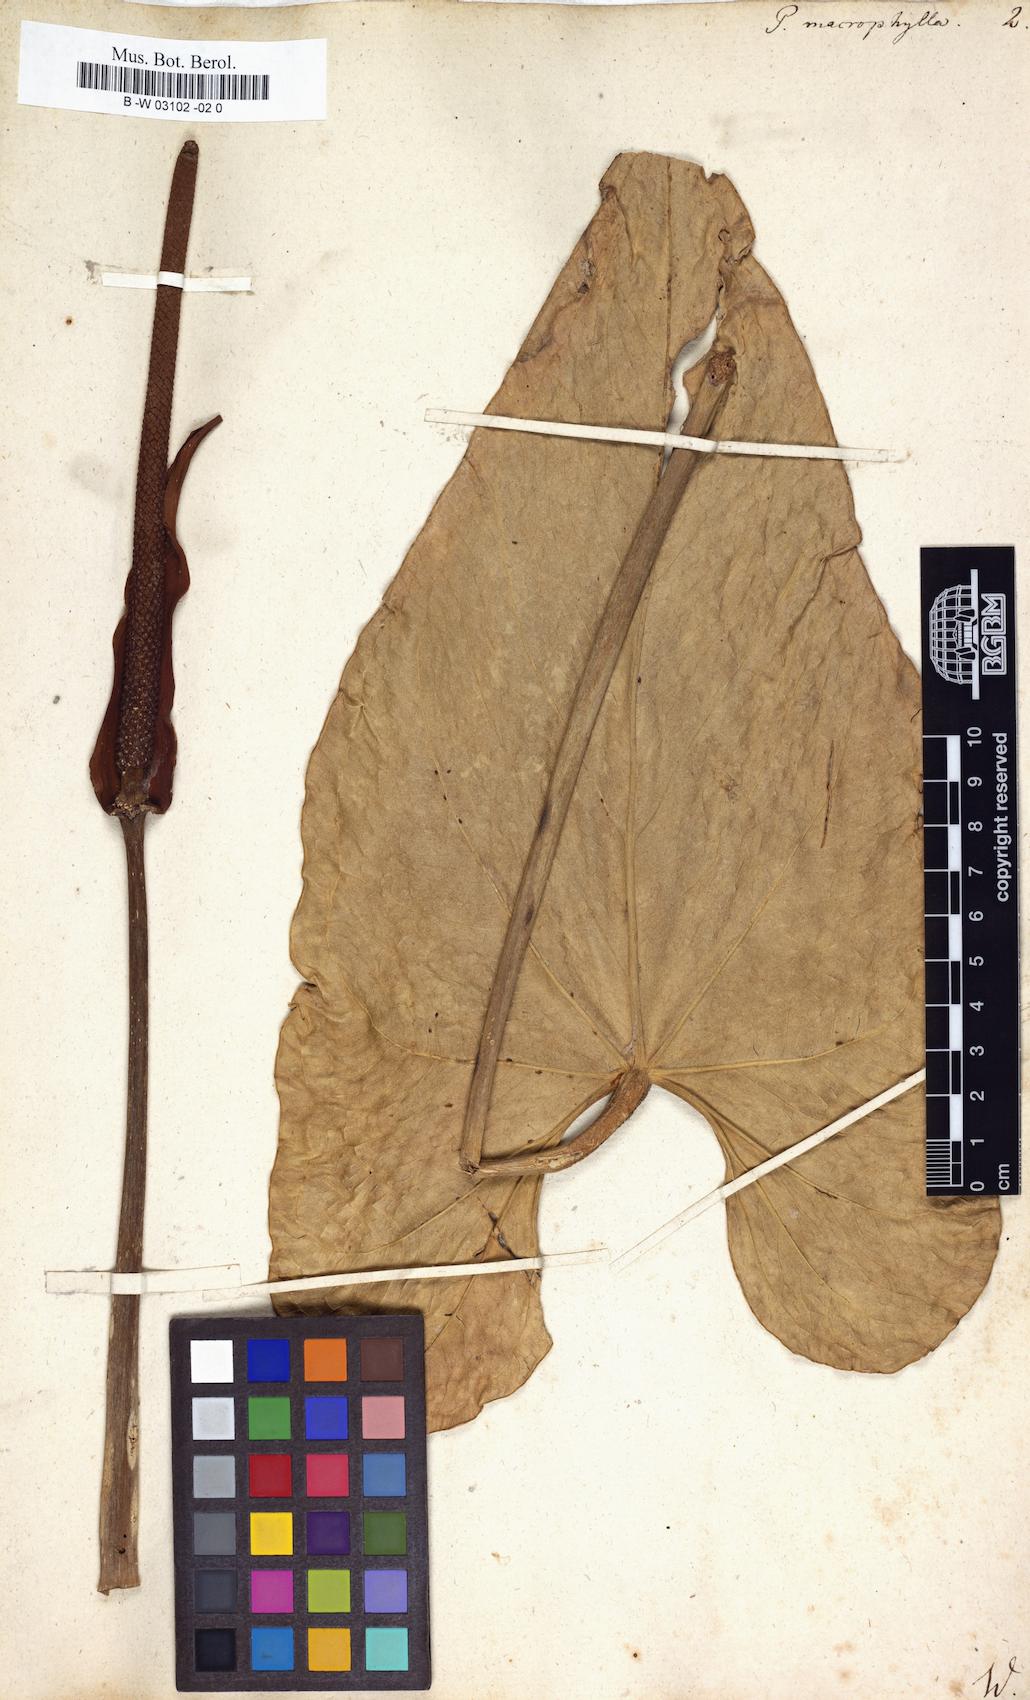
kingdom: Plantae
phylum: Tracheophyta
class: Liliopsida
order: Alismatales
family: Araceae
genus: Pothos
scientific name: Pothos macrophyllus
